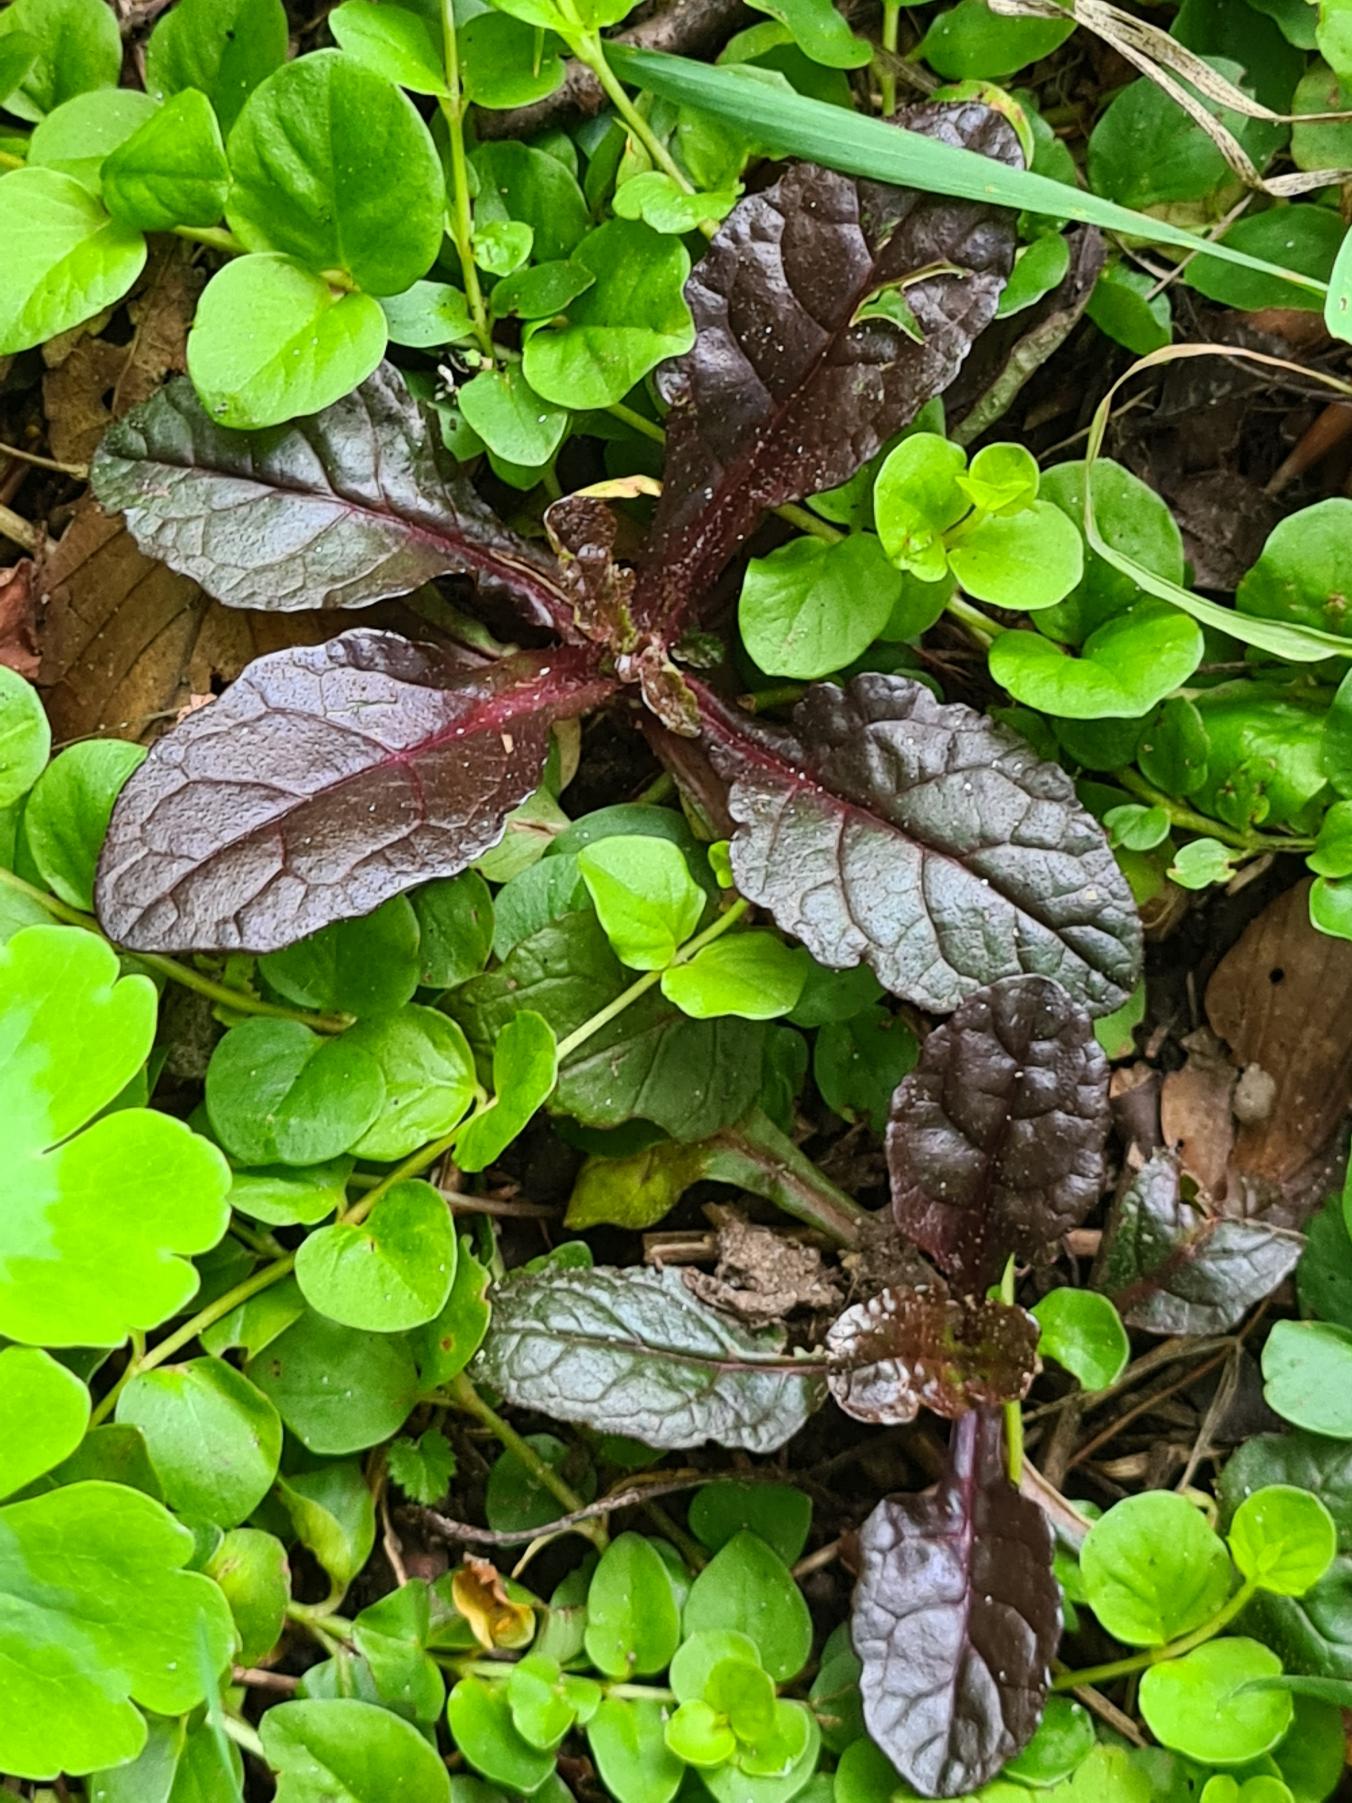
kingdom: Plantae
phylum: Tracheophyta
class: Magnoliopsida
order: Lamiales
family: Lamiaceae
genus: Ajuga
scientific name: Ajuga reptans
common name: Krybende læbeløs
